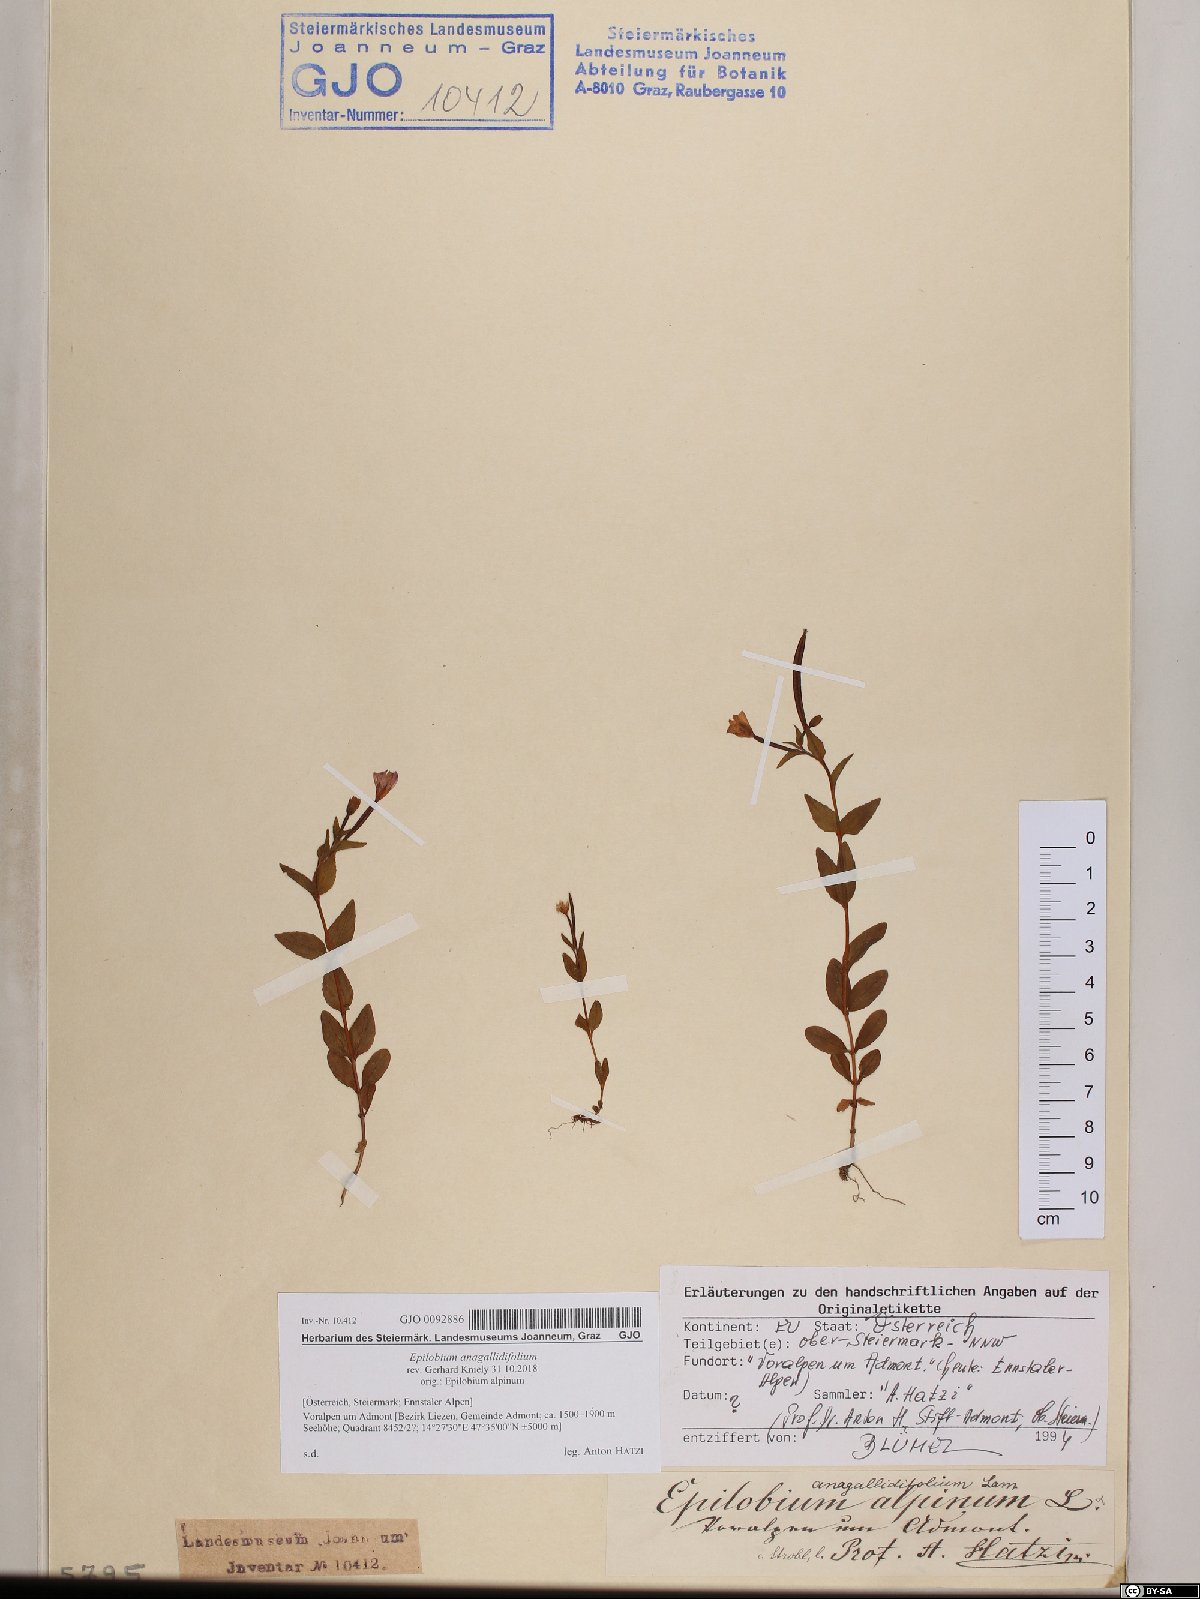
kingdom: Plantae
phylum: Tracheophyta
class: Magnoliopsida
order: Myrtales
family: Onagraceae
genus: Epilobium
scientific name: Epilobium anagallidifolium
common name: Alpine willowherb
